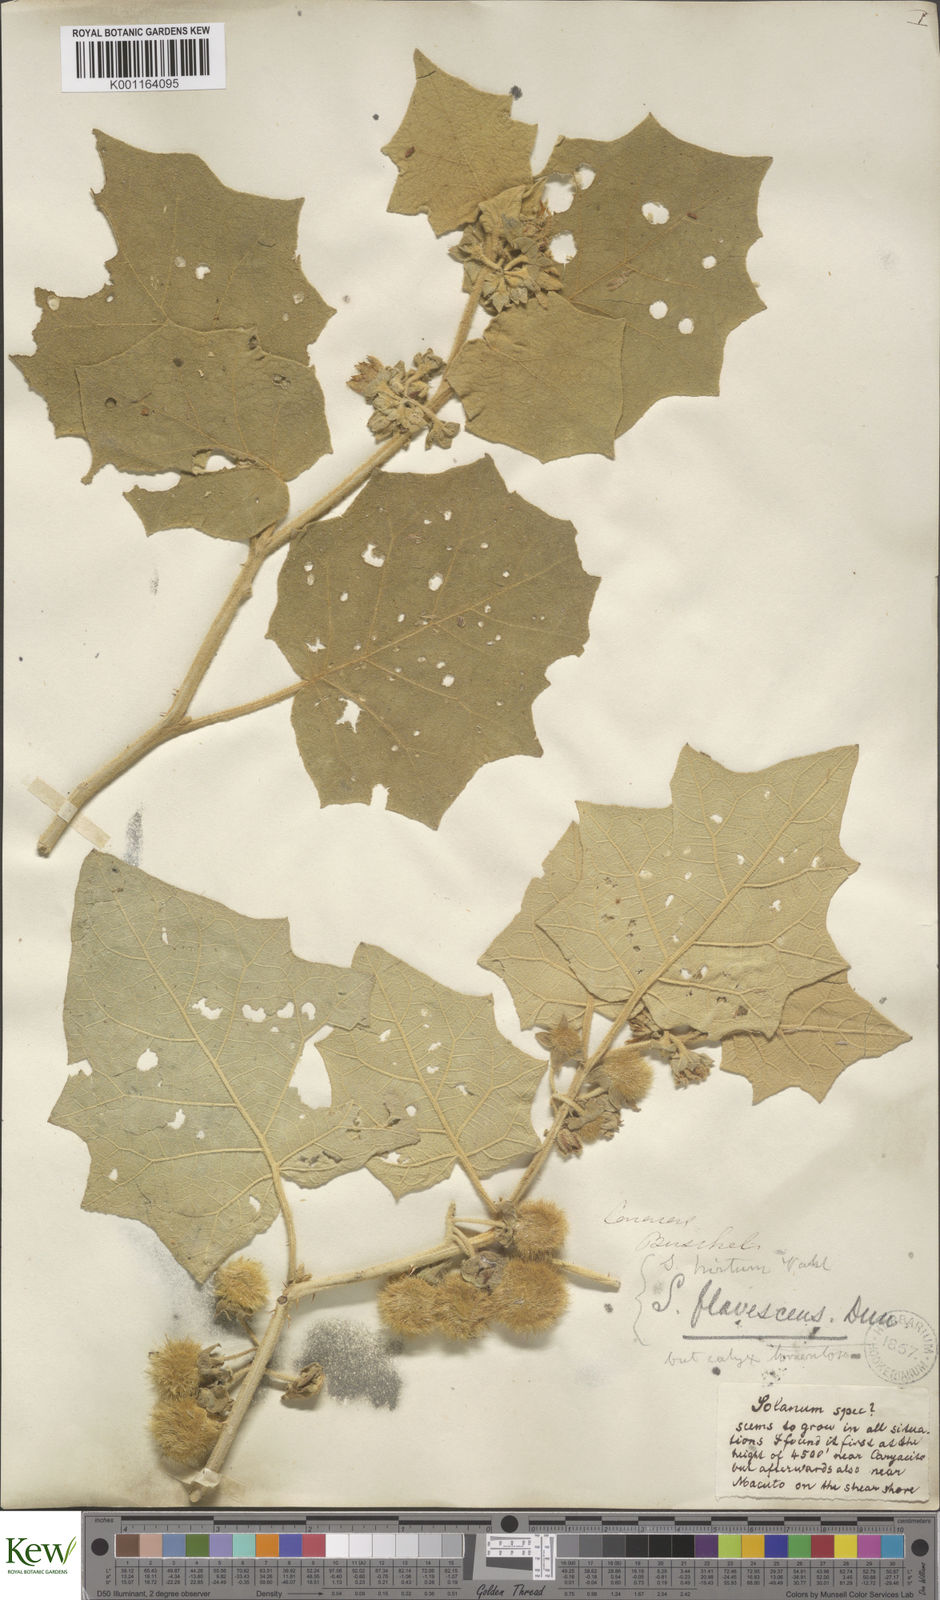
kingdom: Plantae
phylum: Tracheophyta
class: Magnoliopsida
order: Solanales
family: Solanaceae
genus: Solanum
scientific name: Solanum hirtum
